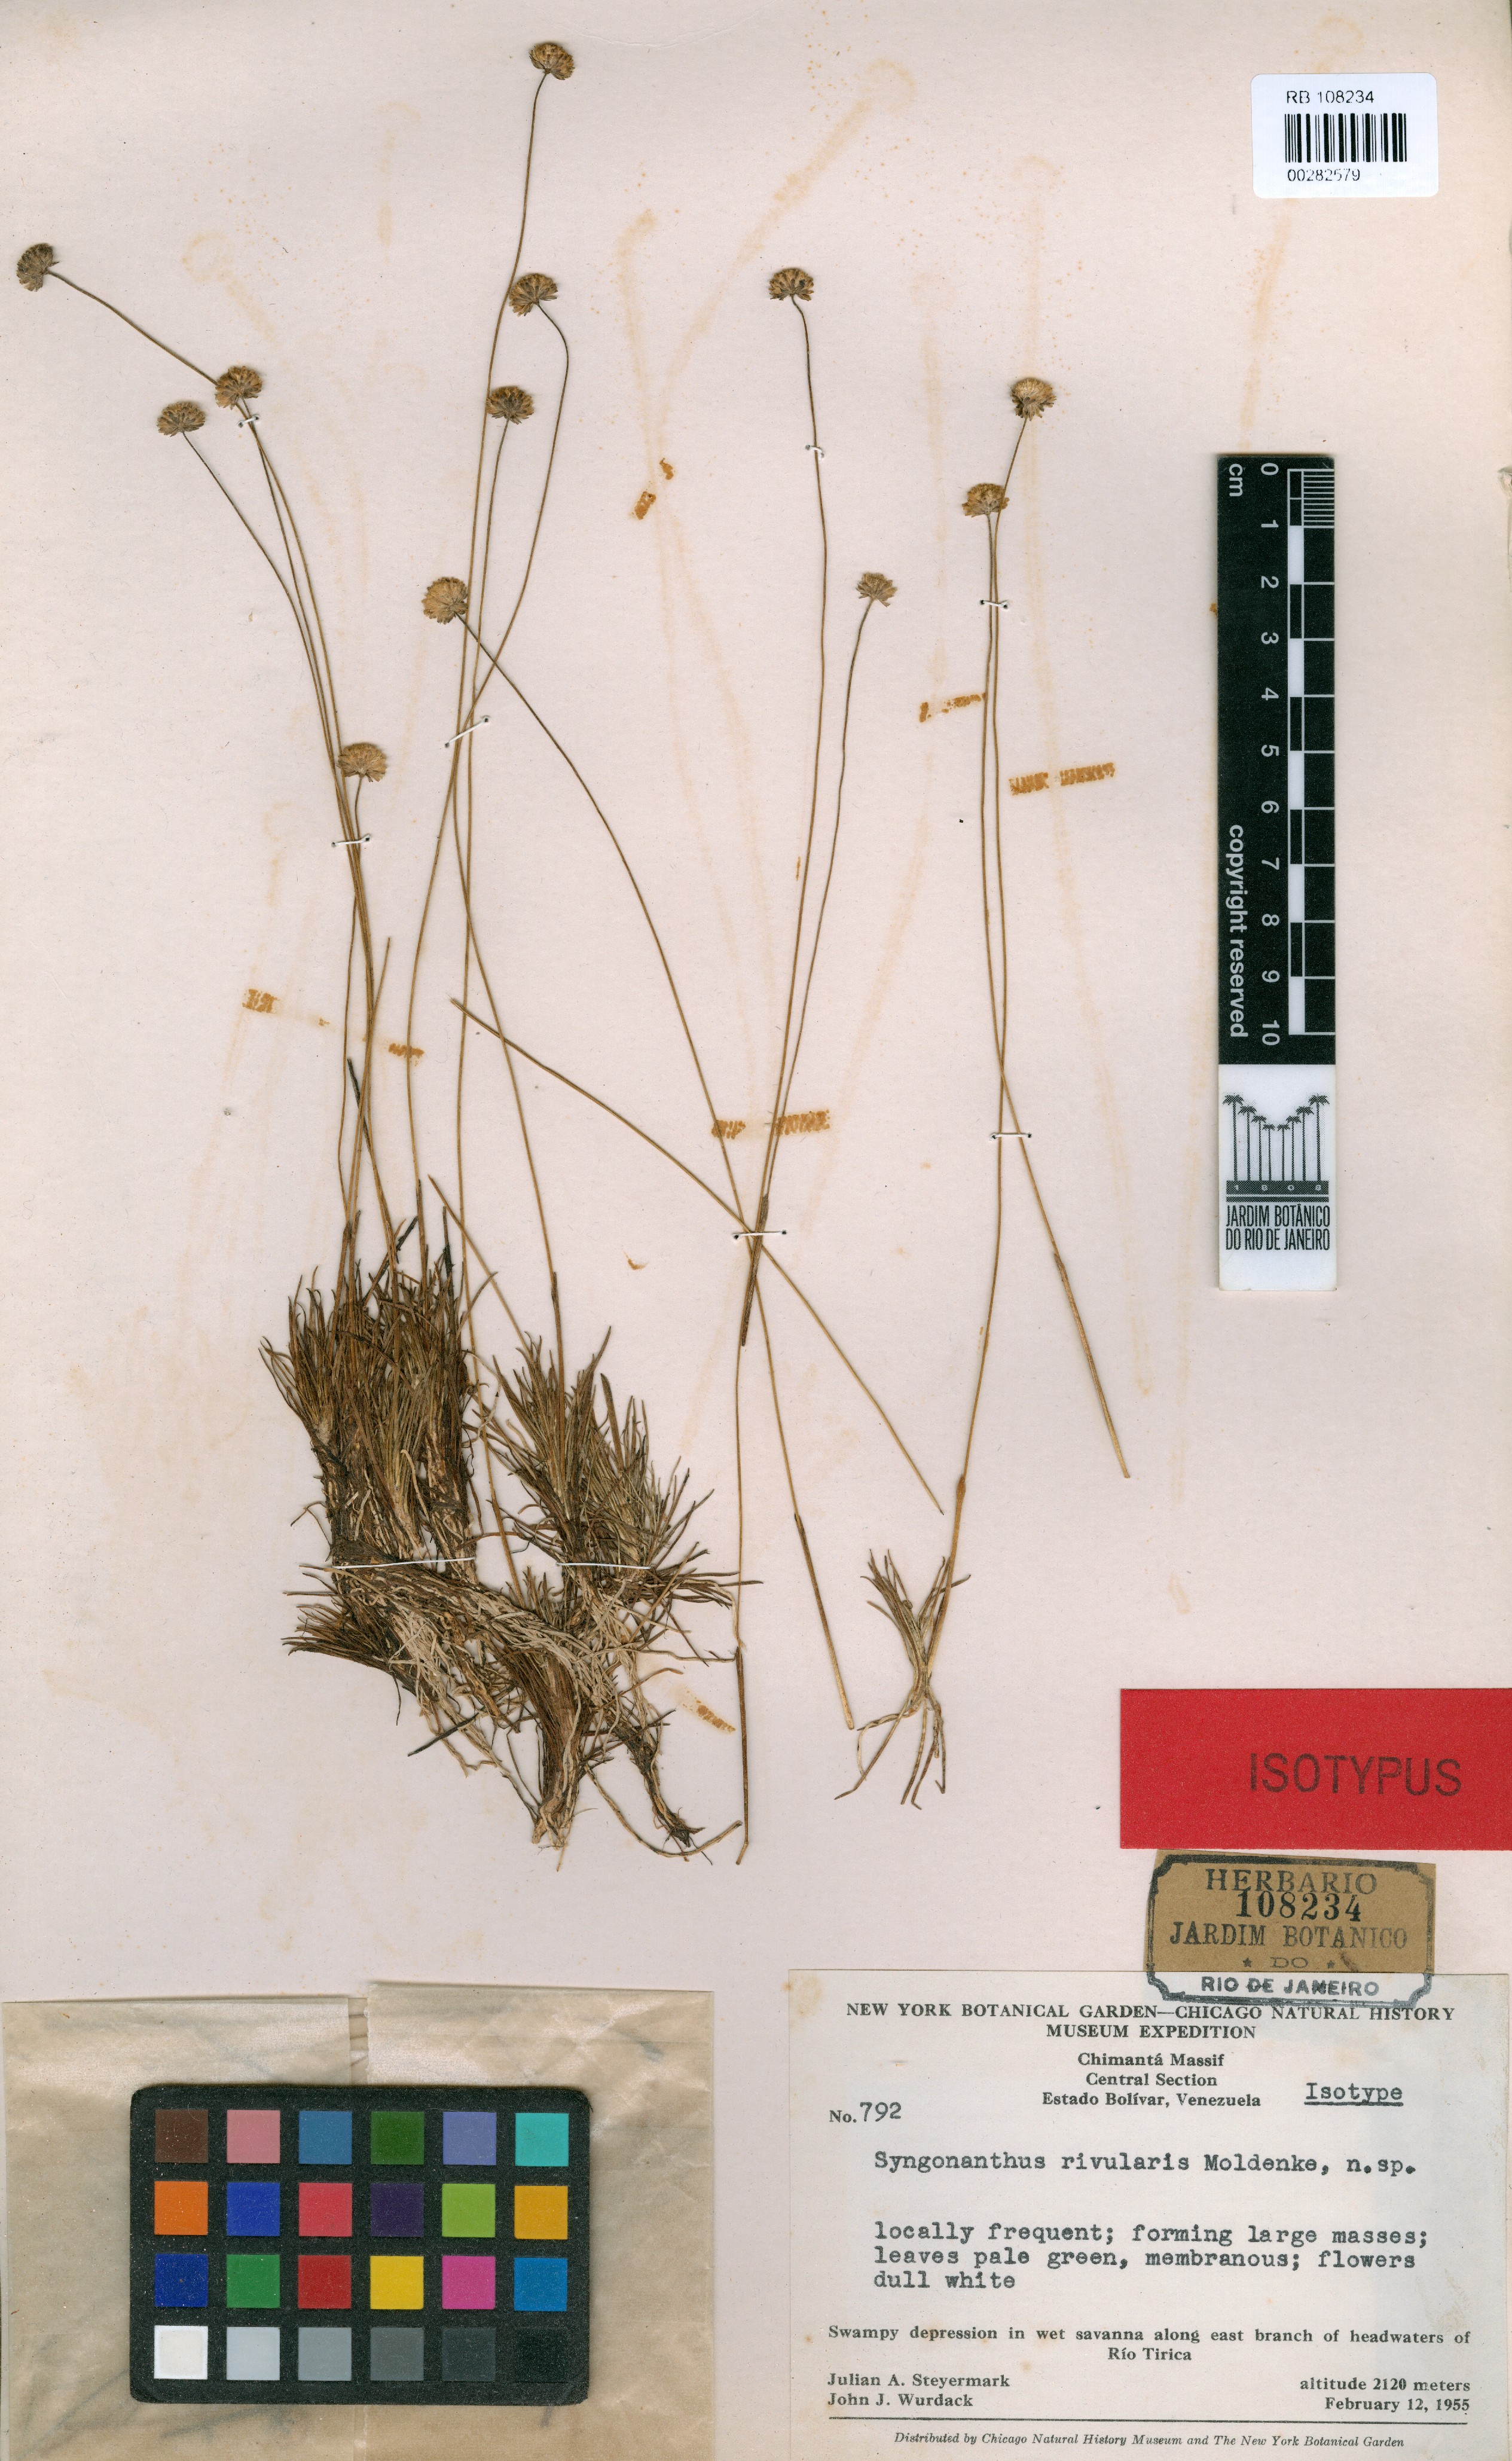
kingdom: Plantae
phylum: Tracheophyta
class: Liliopsida
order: Poales
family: Eriocaulaceae
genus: Syngonanthus
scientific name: Syngonanthus pakaraimensis
